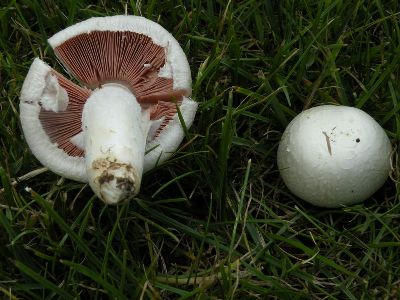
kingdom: Fungi
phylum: Basidiomycota
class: Agaricomycetes
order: Agaricales
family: Agaricaceae
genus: Agaricus
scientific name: Agaricus campestris
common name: mark-champignon
